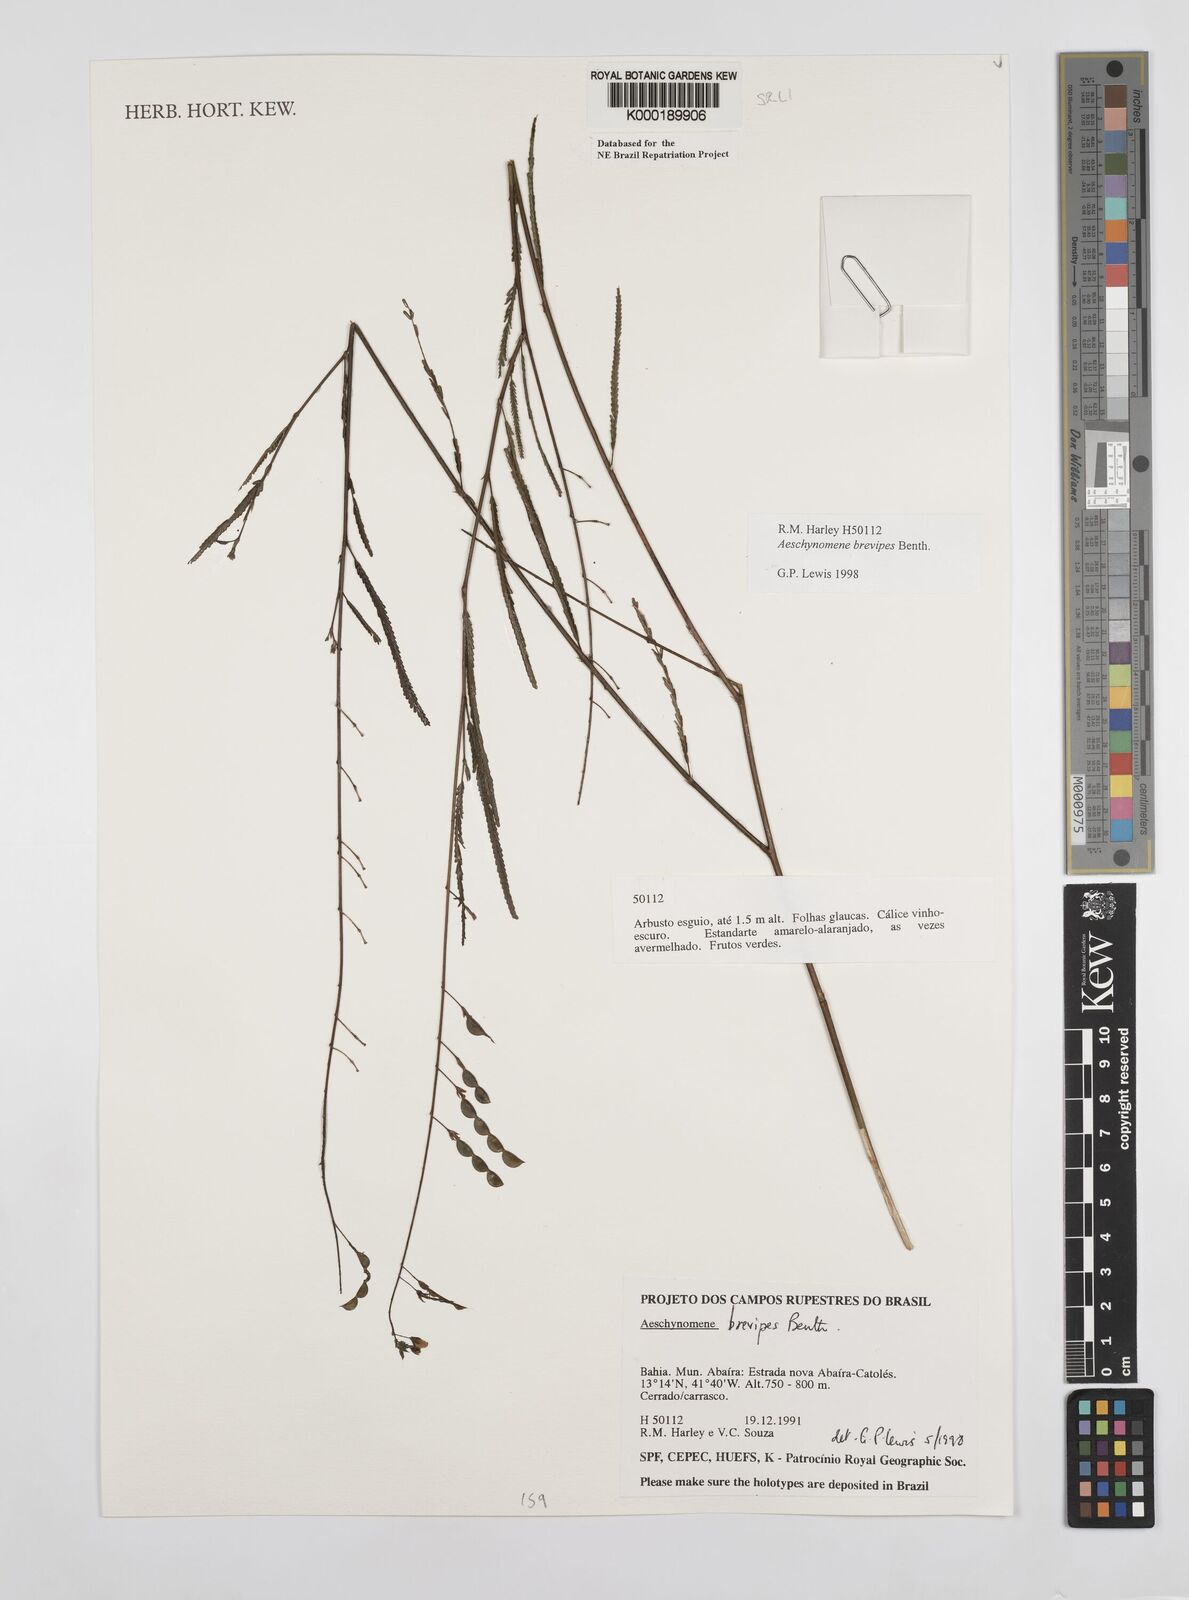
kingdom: Plantae
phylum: Tracheophyta
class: Magnoliopsida
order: Fabales
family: Fabaceae
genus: Ctenodon
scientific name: Ctenodon brevipes
